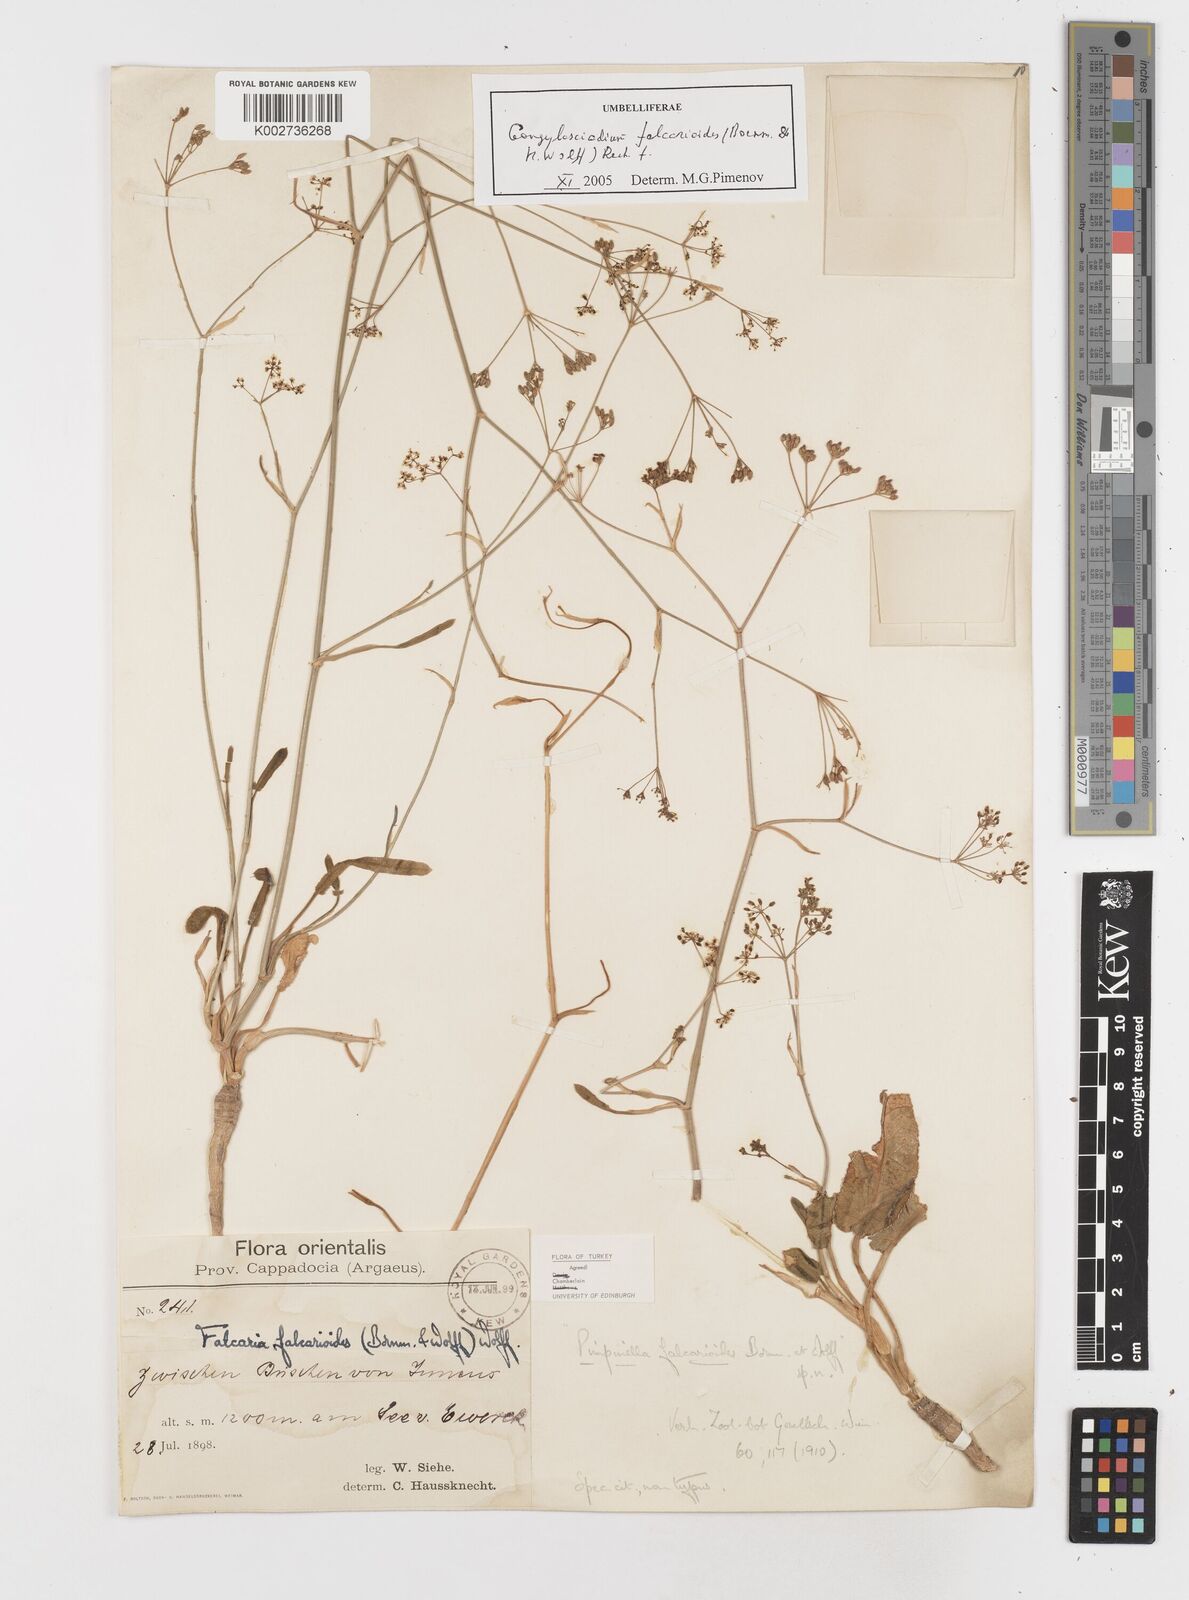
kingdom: Plantae
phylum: Tracheophyta
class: Magnoliopsida
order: Apiales
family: Apiaceae
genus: Gongylosciadium
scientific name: Gongylosciadium falcarioides
